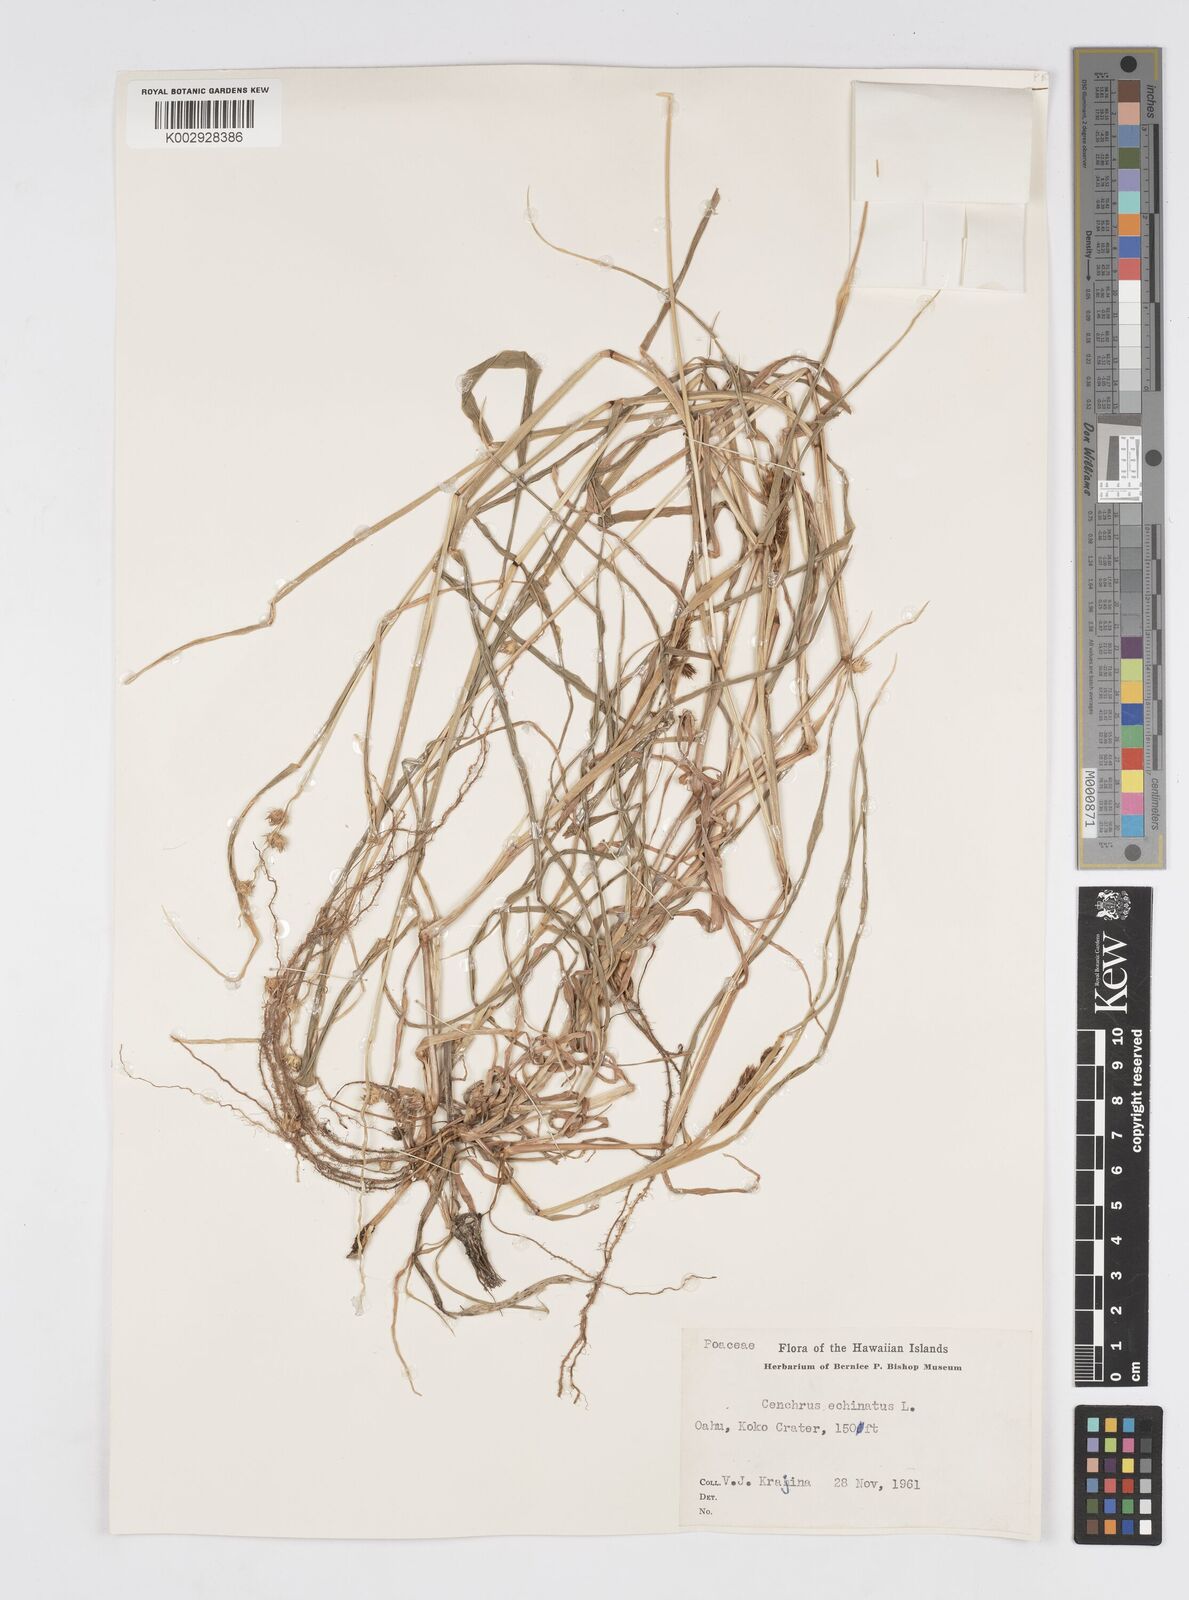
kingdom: Plantae
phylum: Tracheophyta
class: Liliopsida
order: Poales
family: Poaceae
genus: Cenchrus
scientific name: Cenchrus echinatus
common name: Southern sandbur
